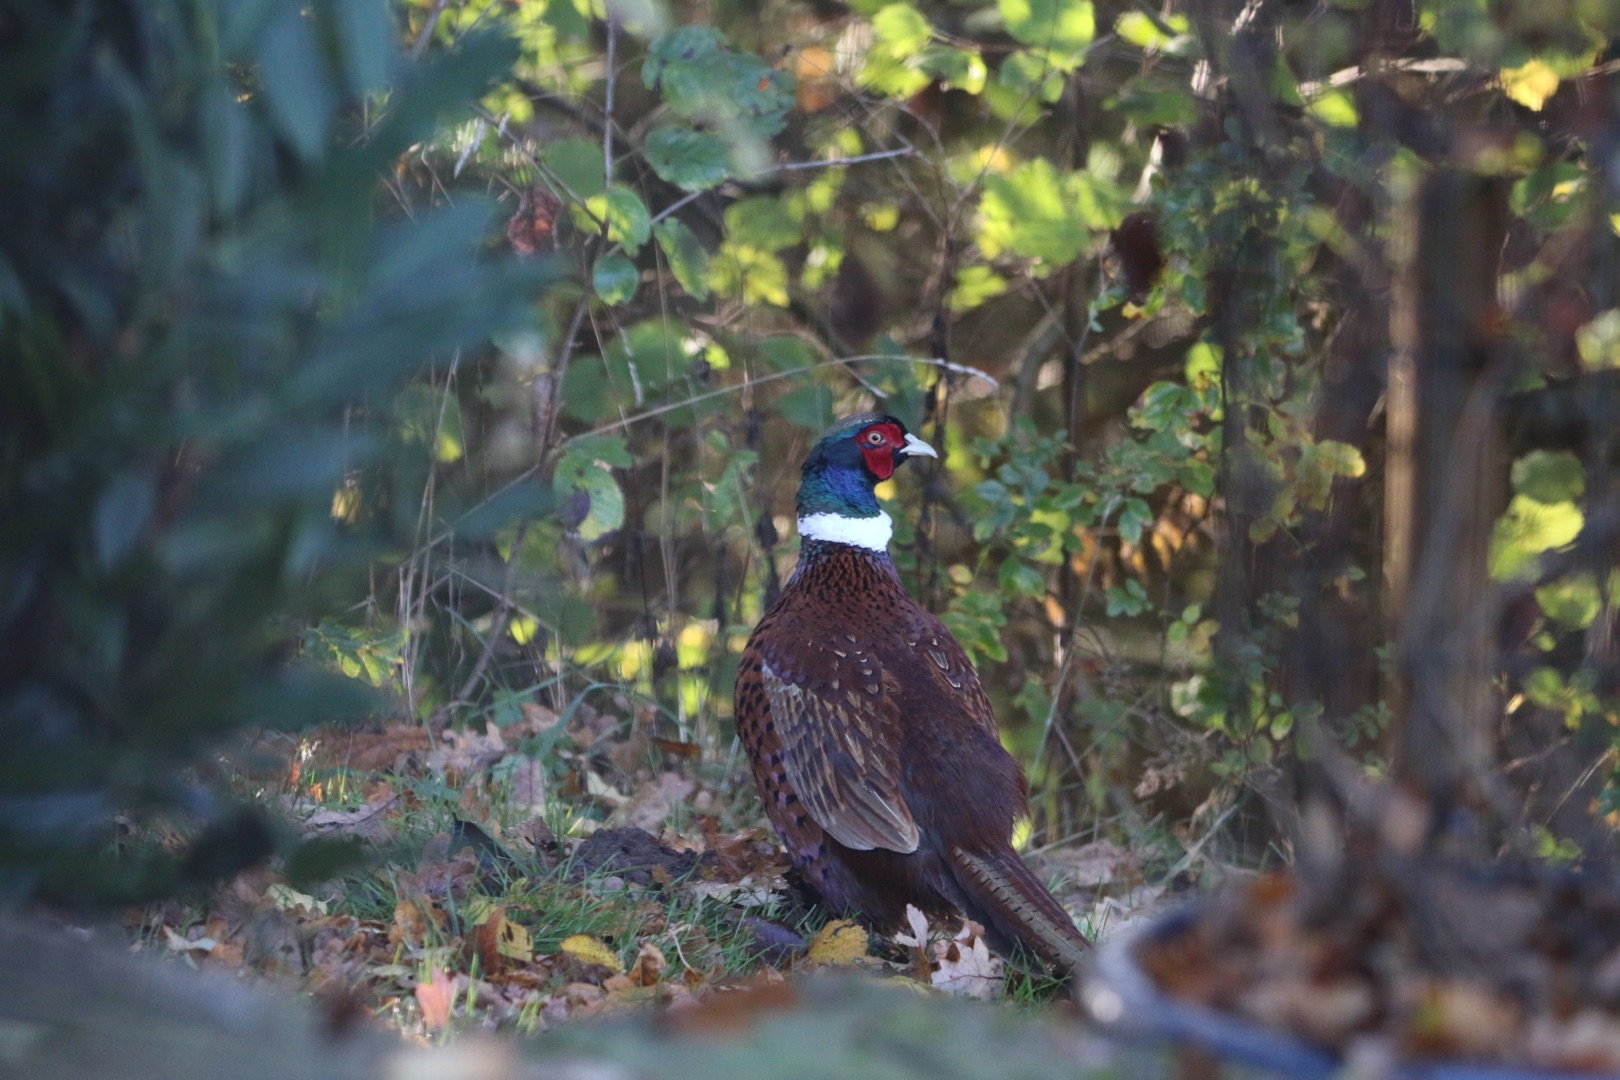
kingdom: Animalia
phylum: Chordata
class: Aves
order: Galliformes
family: Phasianidae
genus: Phasianus
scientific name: Phasianus colchicus
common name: Fasan
